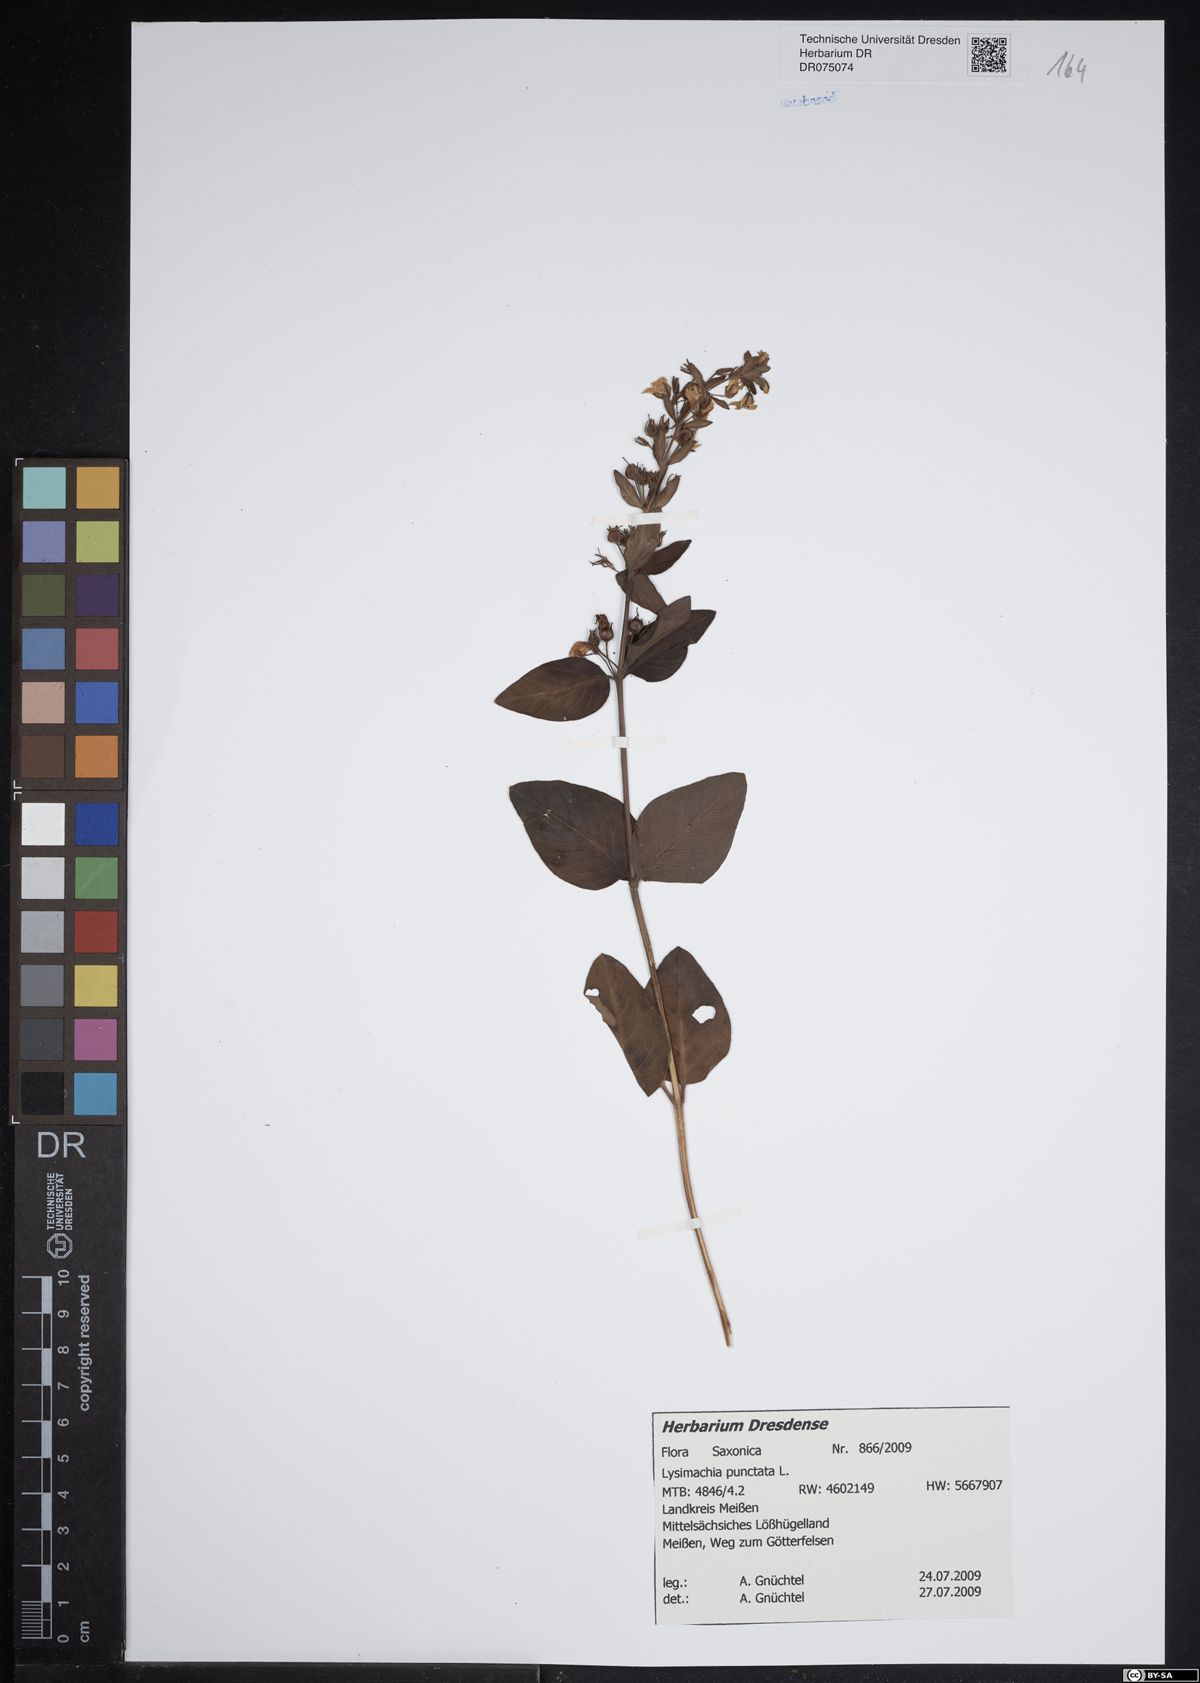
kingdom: Plantae
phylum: Tracheophyta
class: Magnoliopsida
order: Ericales
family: Primulaceae
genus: Lysimachia
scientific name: Lysimachia punctata
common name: Dotted loosestrife
